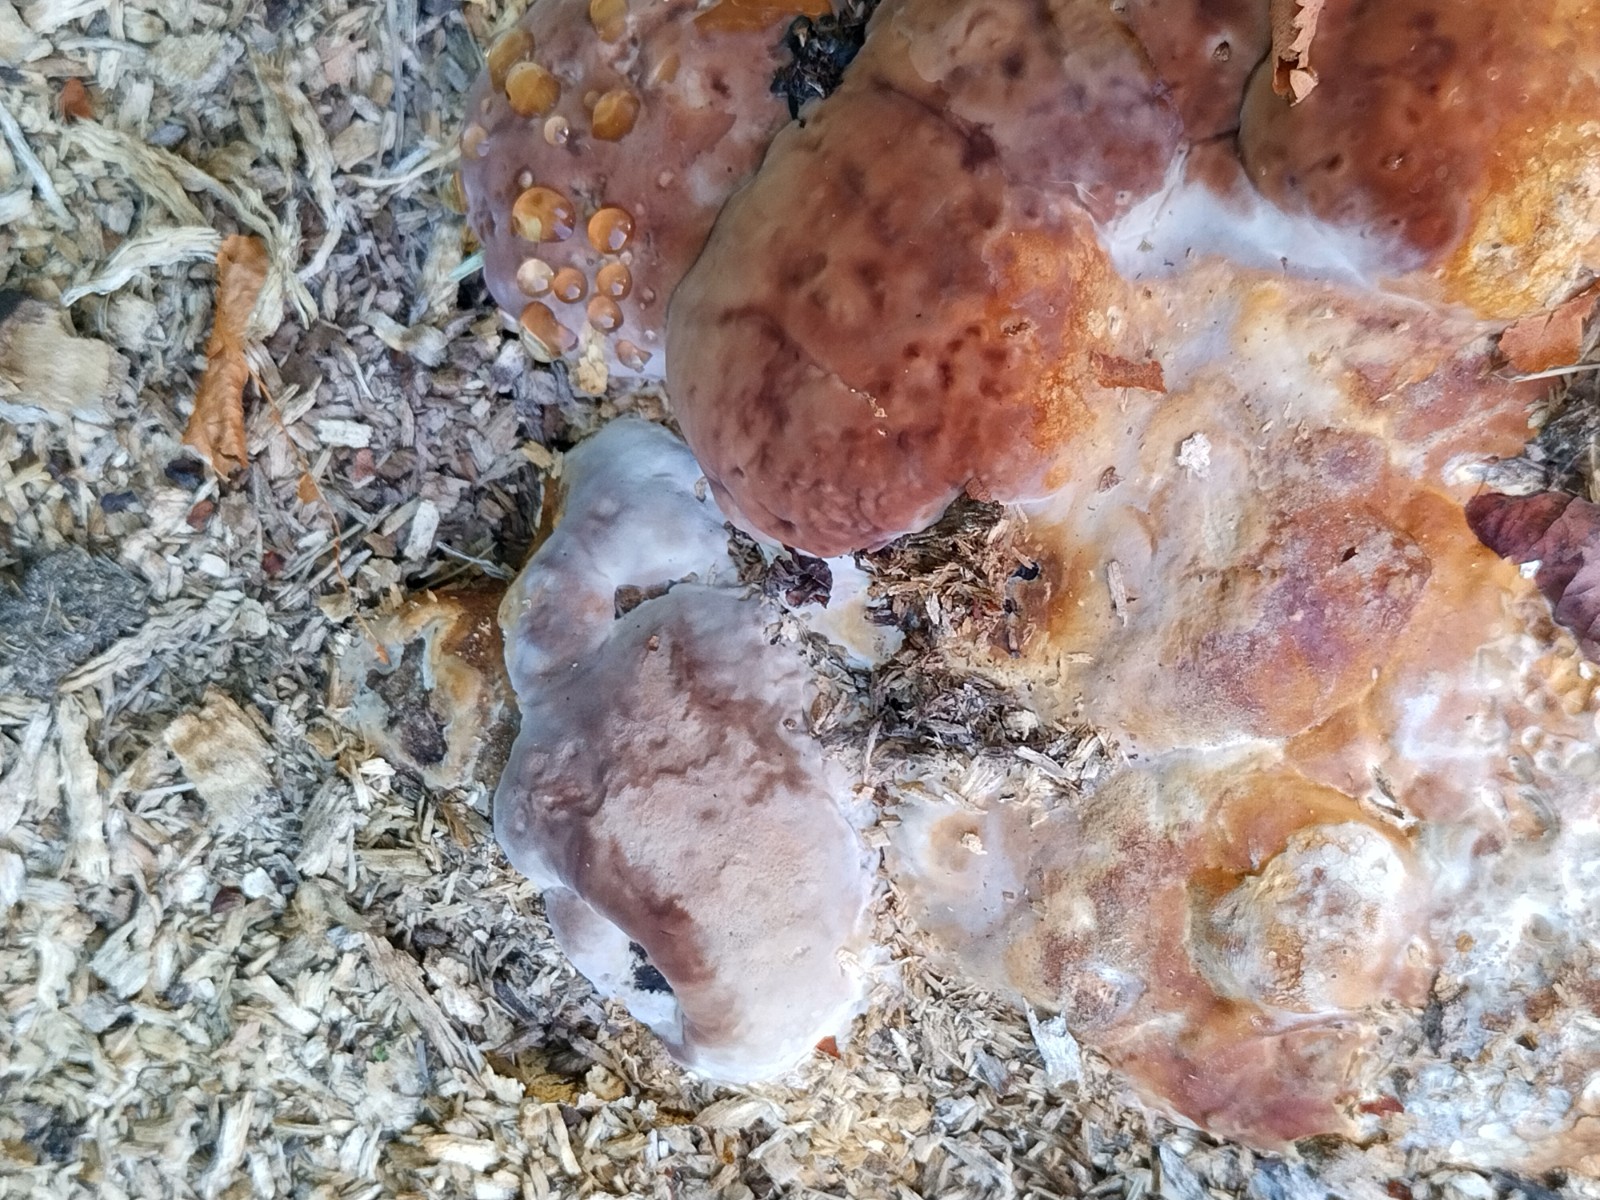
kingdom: Fungi
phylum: Basidiomycota
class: Agaricomycetes
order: Polyporales
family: Fomitopsidaceae
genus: Fomitopsis
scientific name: Fomitopsis pinicola
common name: randbæltet hovporesvamp
